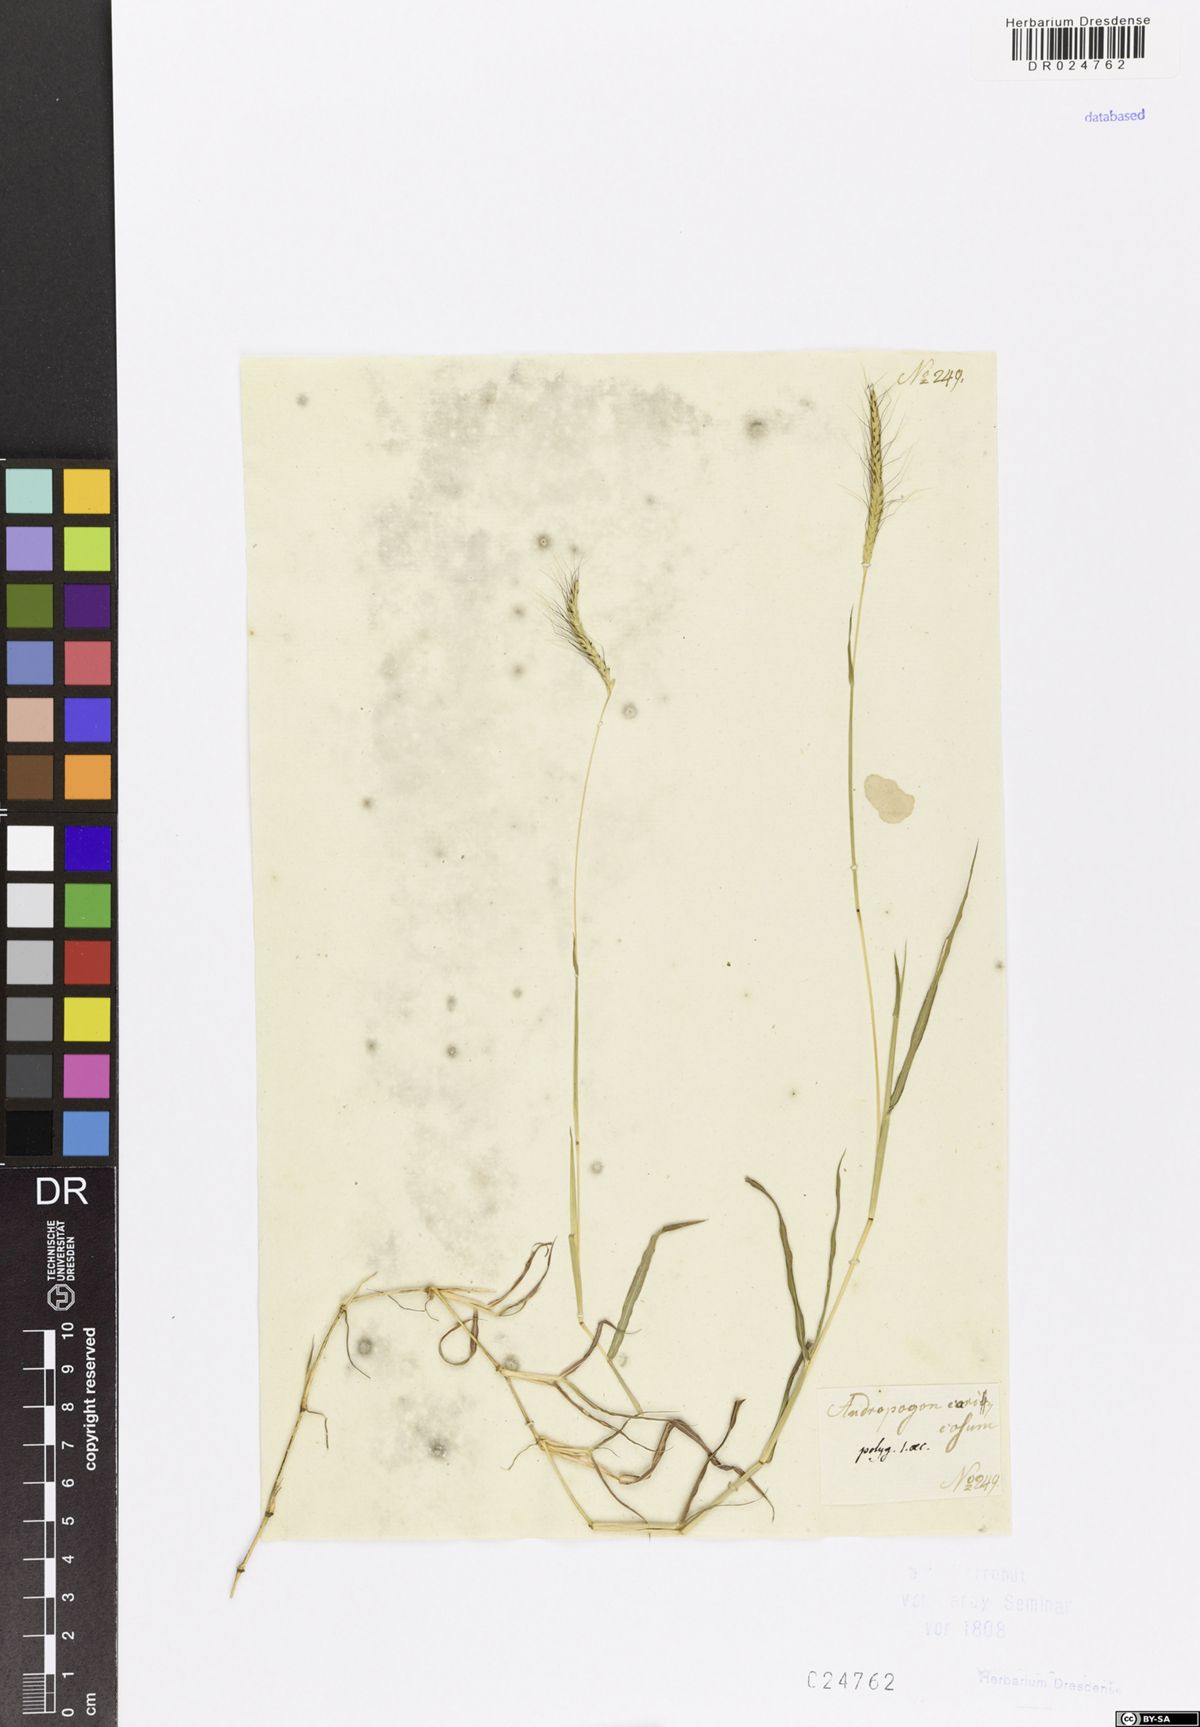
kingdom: Plantae
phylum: Tracheophyta
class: Liliopsida
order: Poales
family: Poaceae
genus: Dichanthium
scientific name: Dichanthium caricosum
